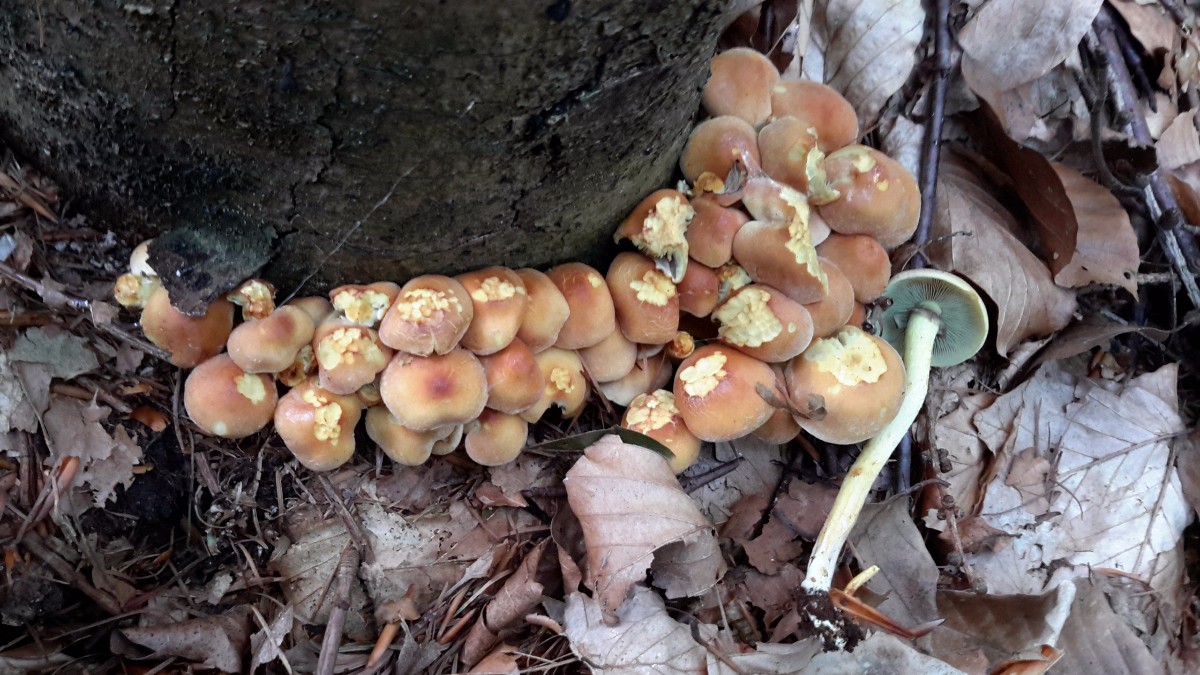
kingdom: Fungi
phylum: Basidiomycota
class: Agaricomycetes
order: Agaricales
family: Strophariaceae
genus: Hypholoma
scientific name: Hypholoma fasciculare
